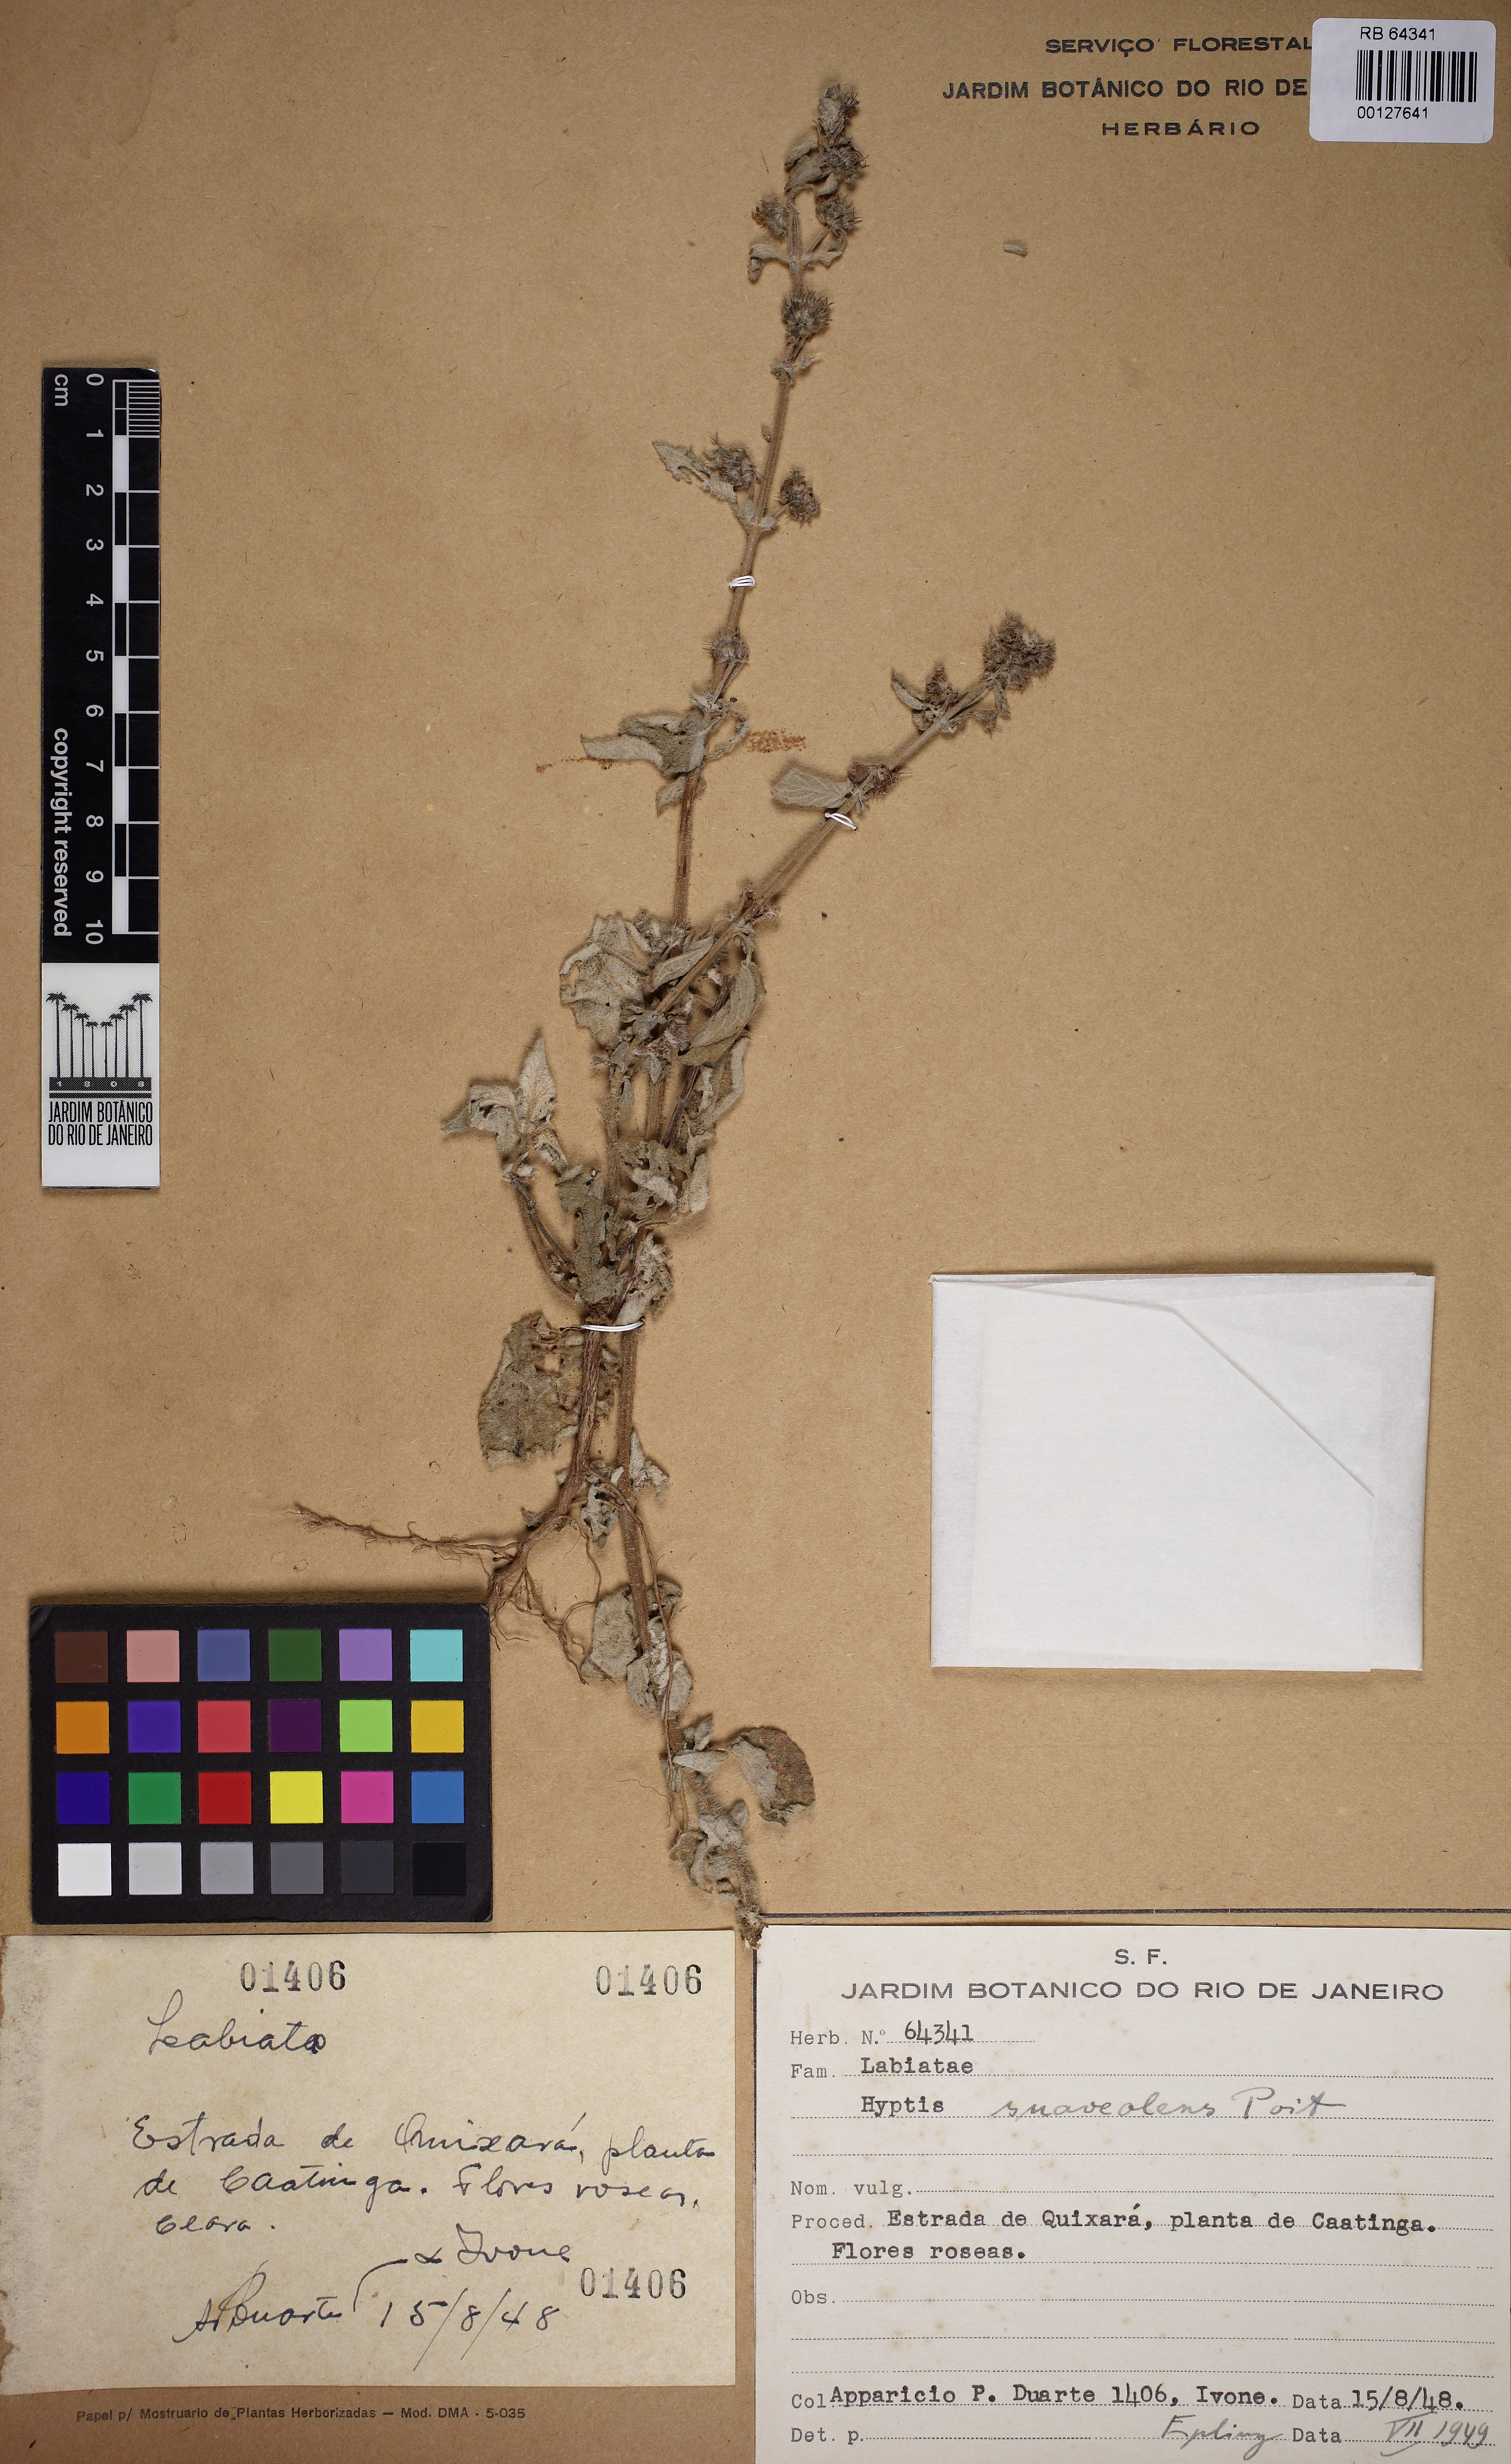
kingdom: Plantae
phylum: Tracheophyta
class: Magnoliopsida
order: Lamiales
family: Bignoniaceae
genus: Fridericia
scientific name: Fridericia triplinervia
